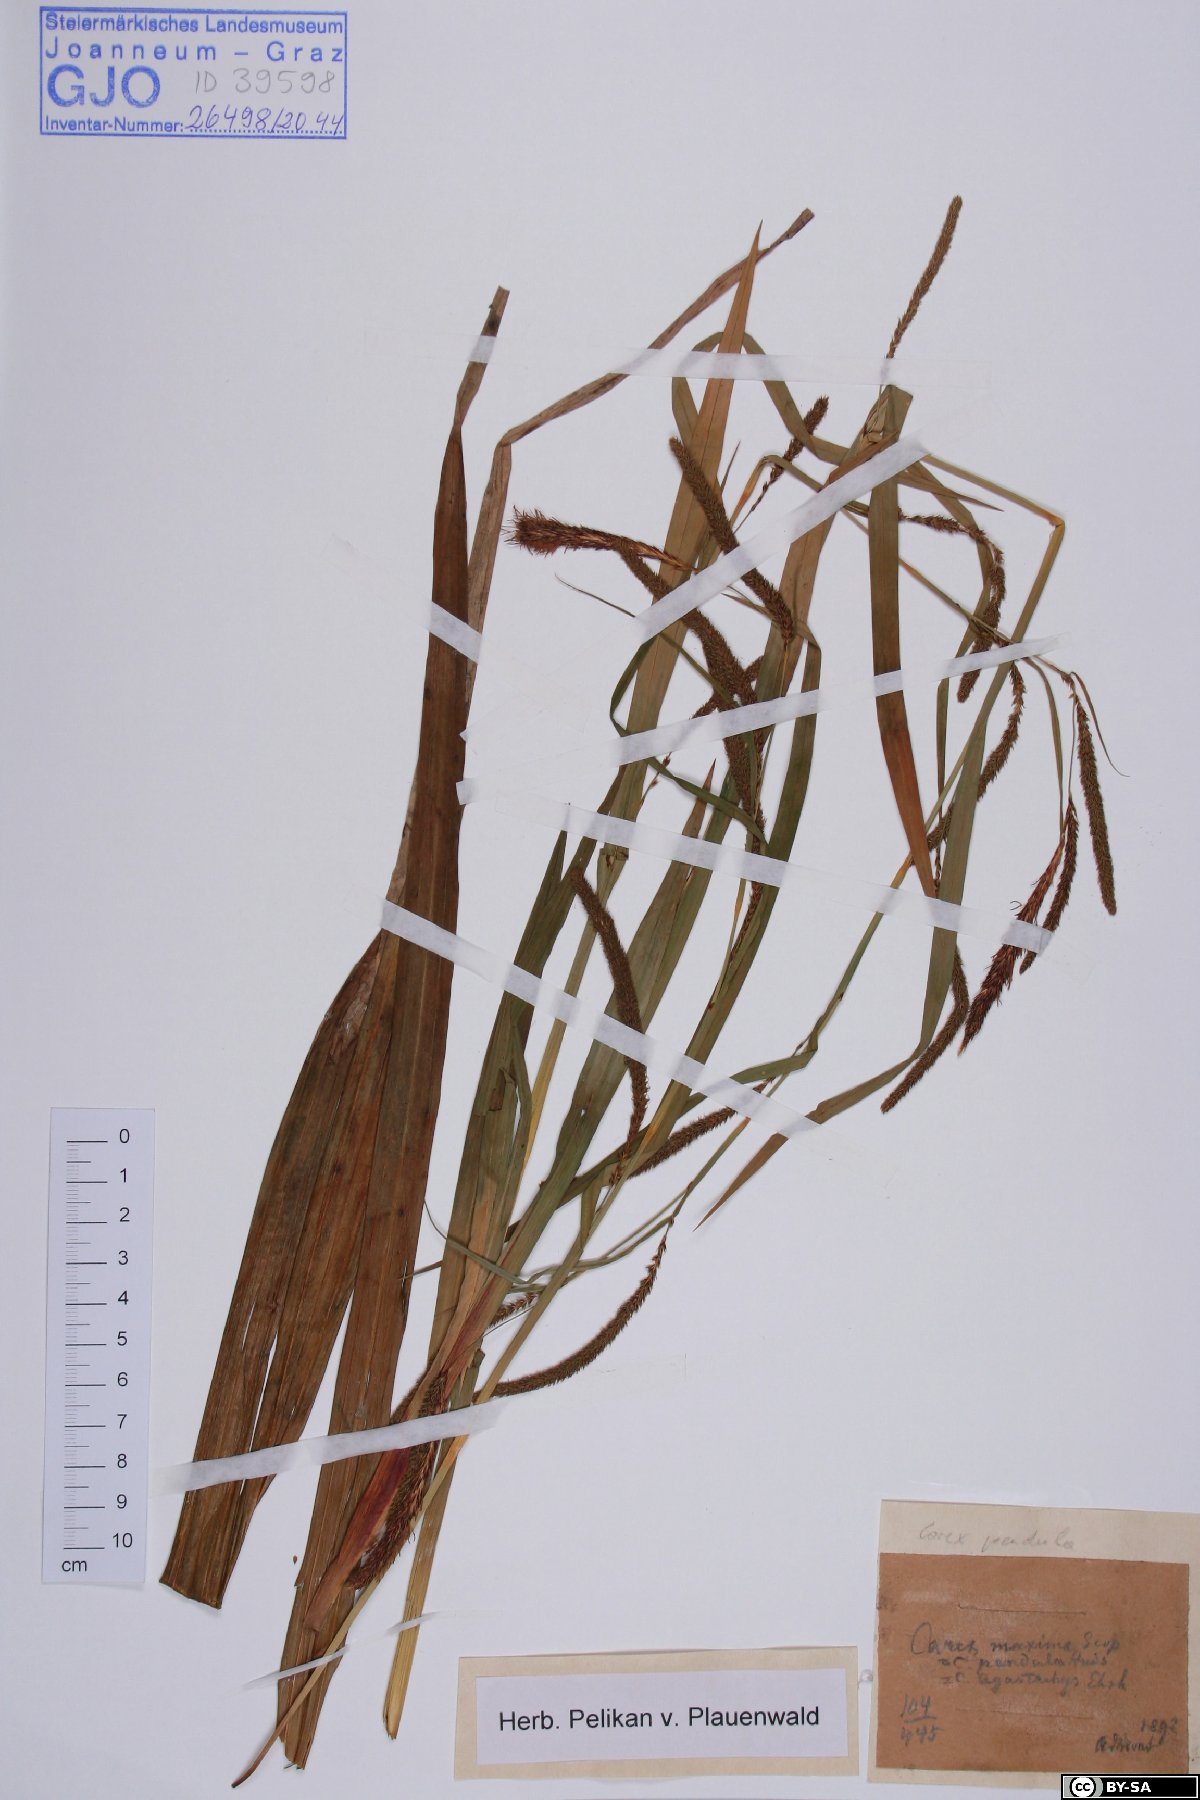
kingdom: Plantae
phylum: Tracheophyta
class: Liliopsida
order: Poales
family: Cyperaceae
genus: Carex
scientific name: Carex pendula
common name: Pendulous sedge
